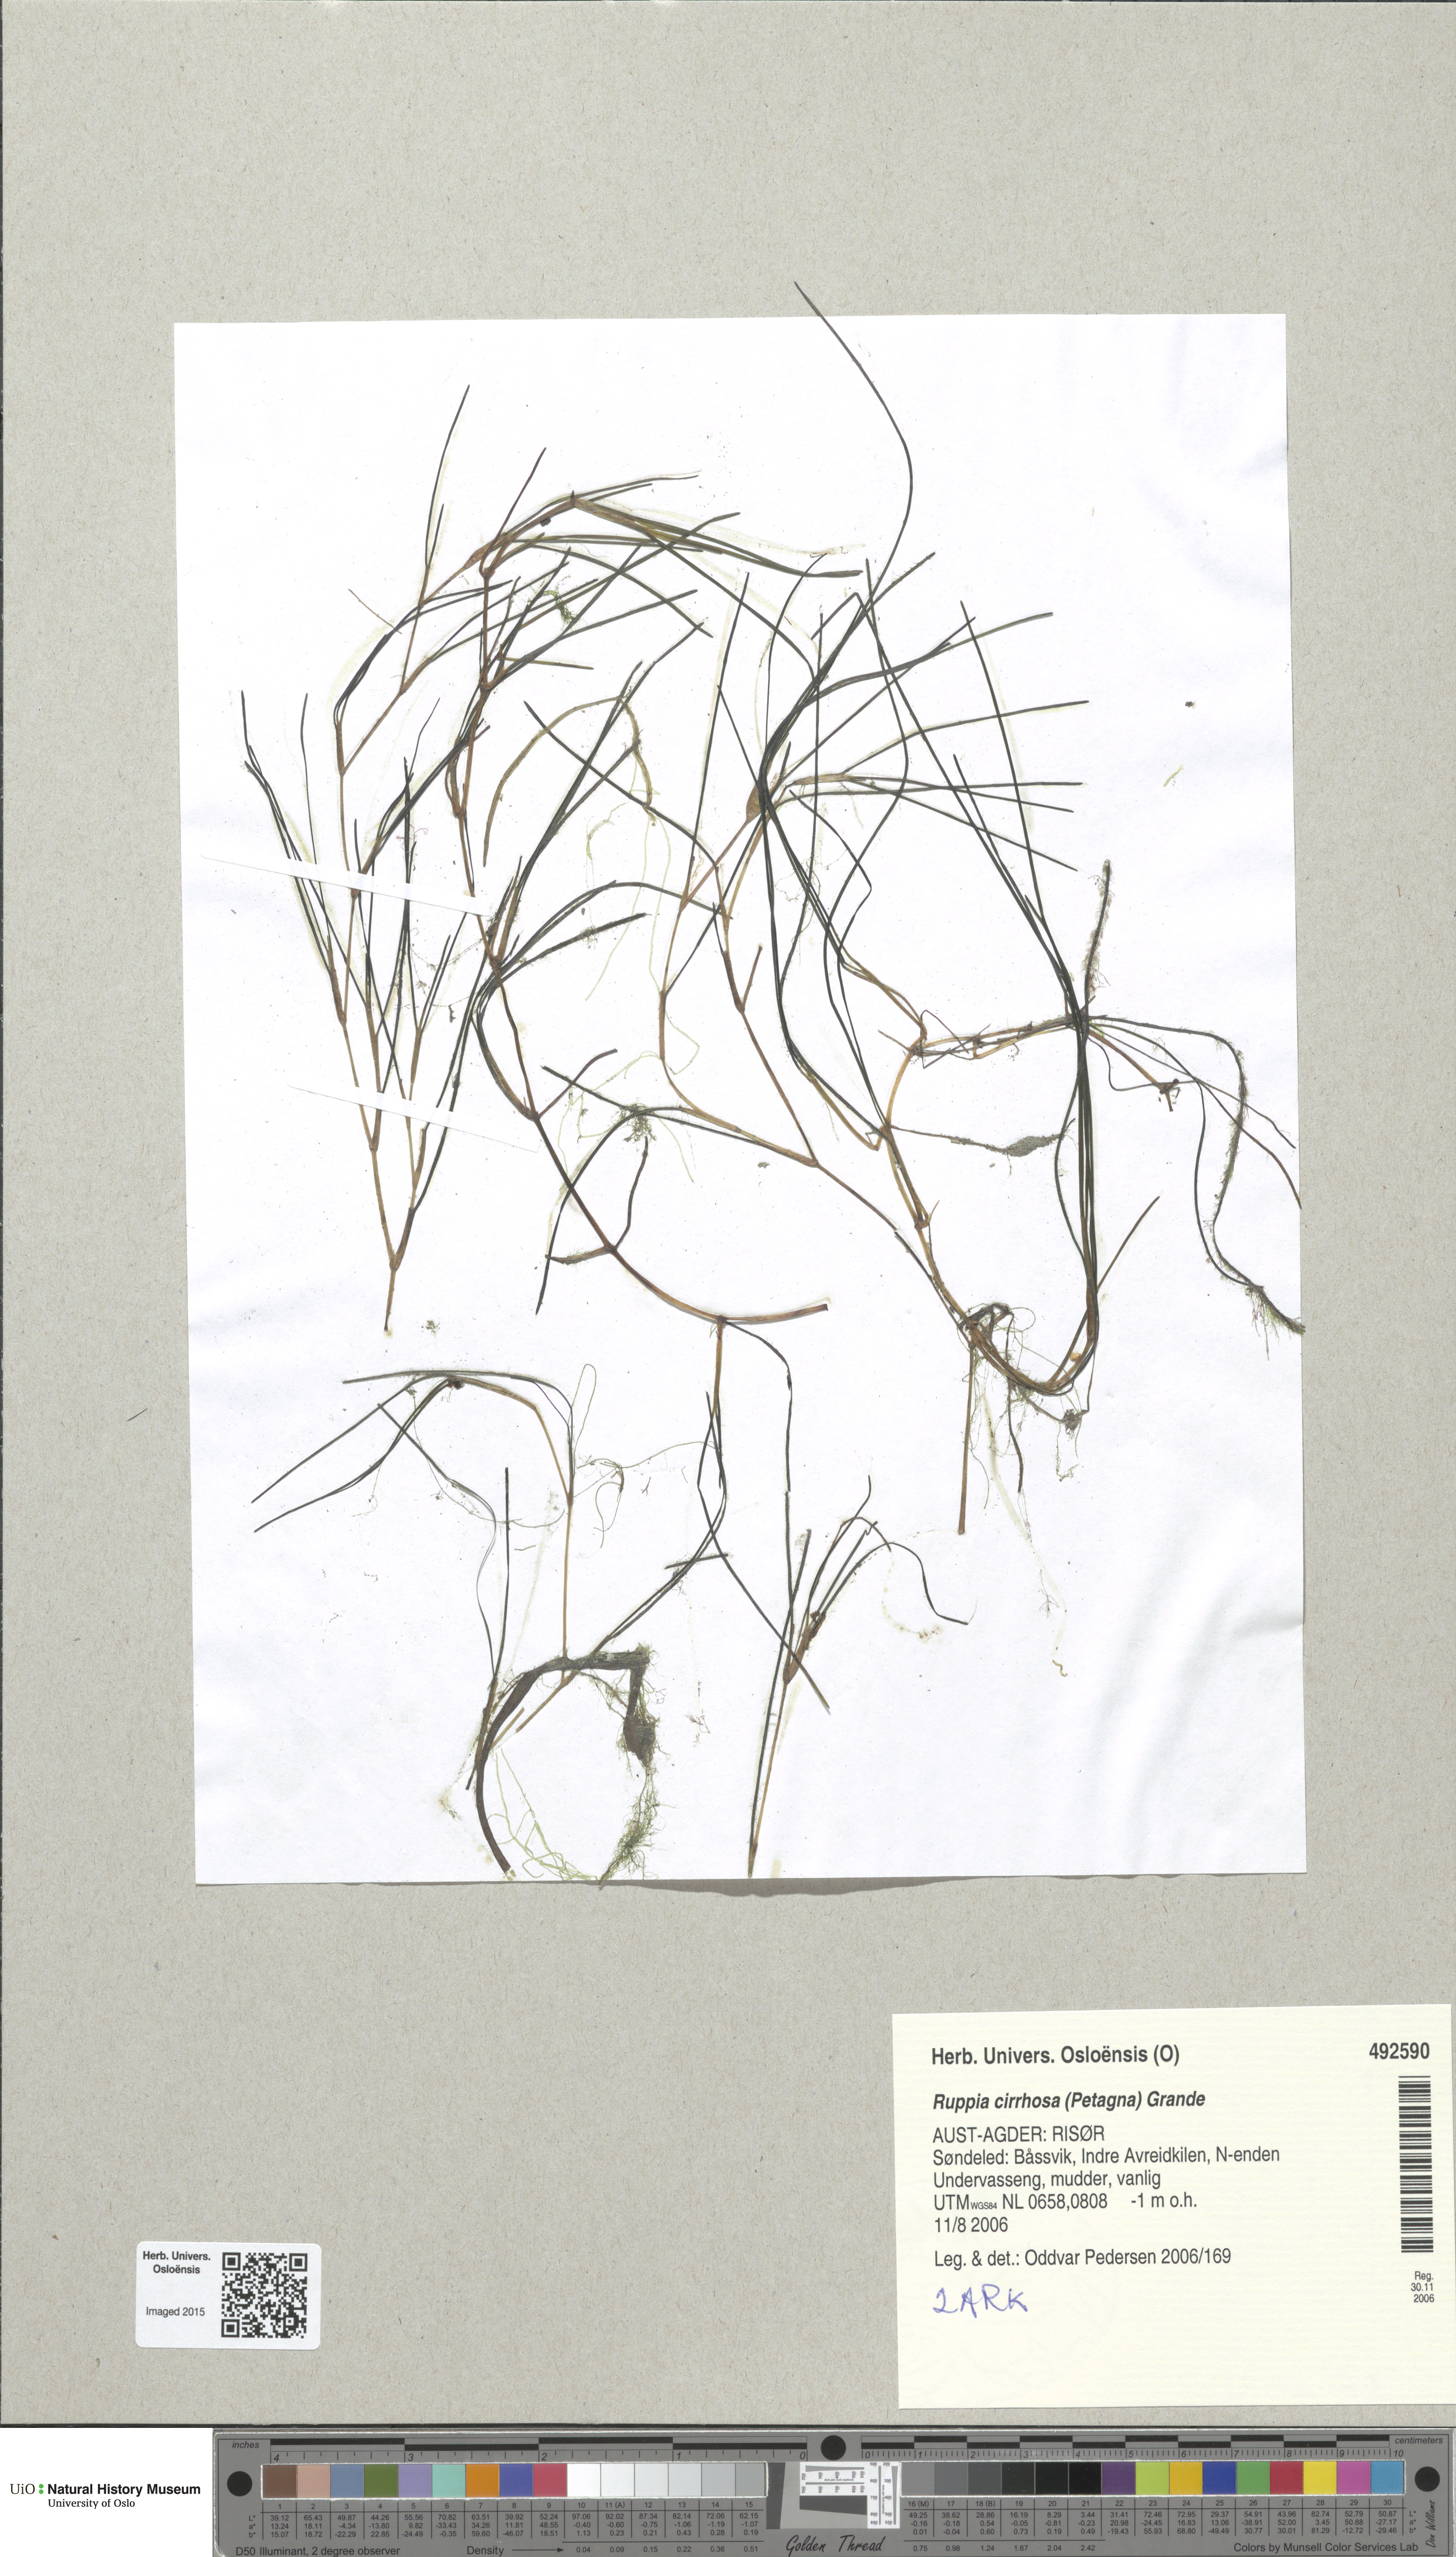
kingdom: Plantae
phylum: Tracheophyta
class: Liliopsida
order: Alismatales
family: Ruppiaceae
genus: Ruppia
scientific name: Ruppia cirrhosa
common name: Spiral tasselweed
